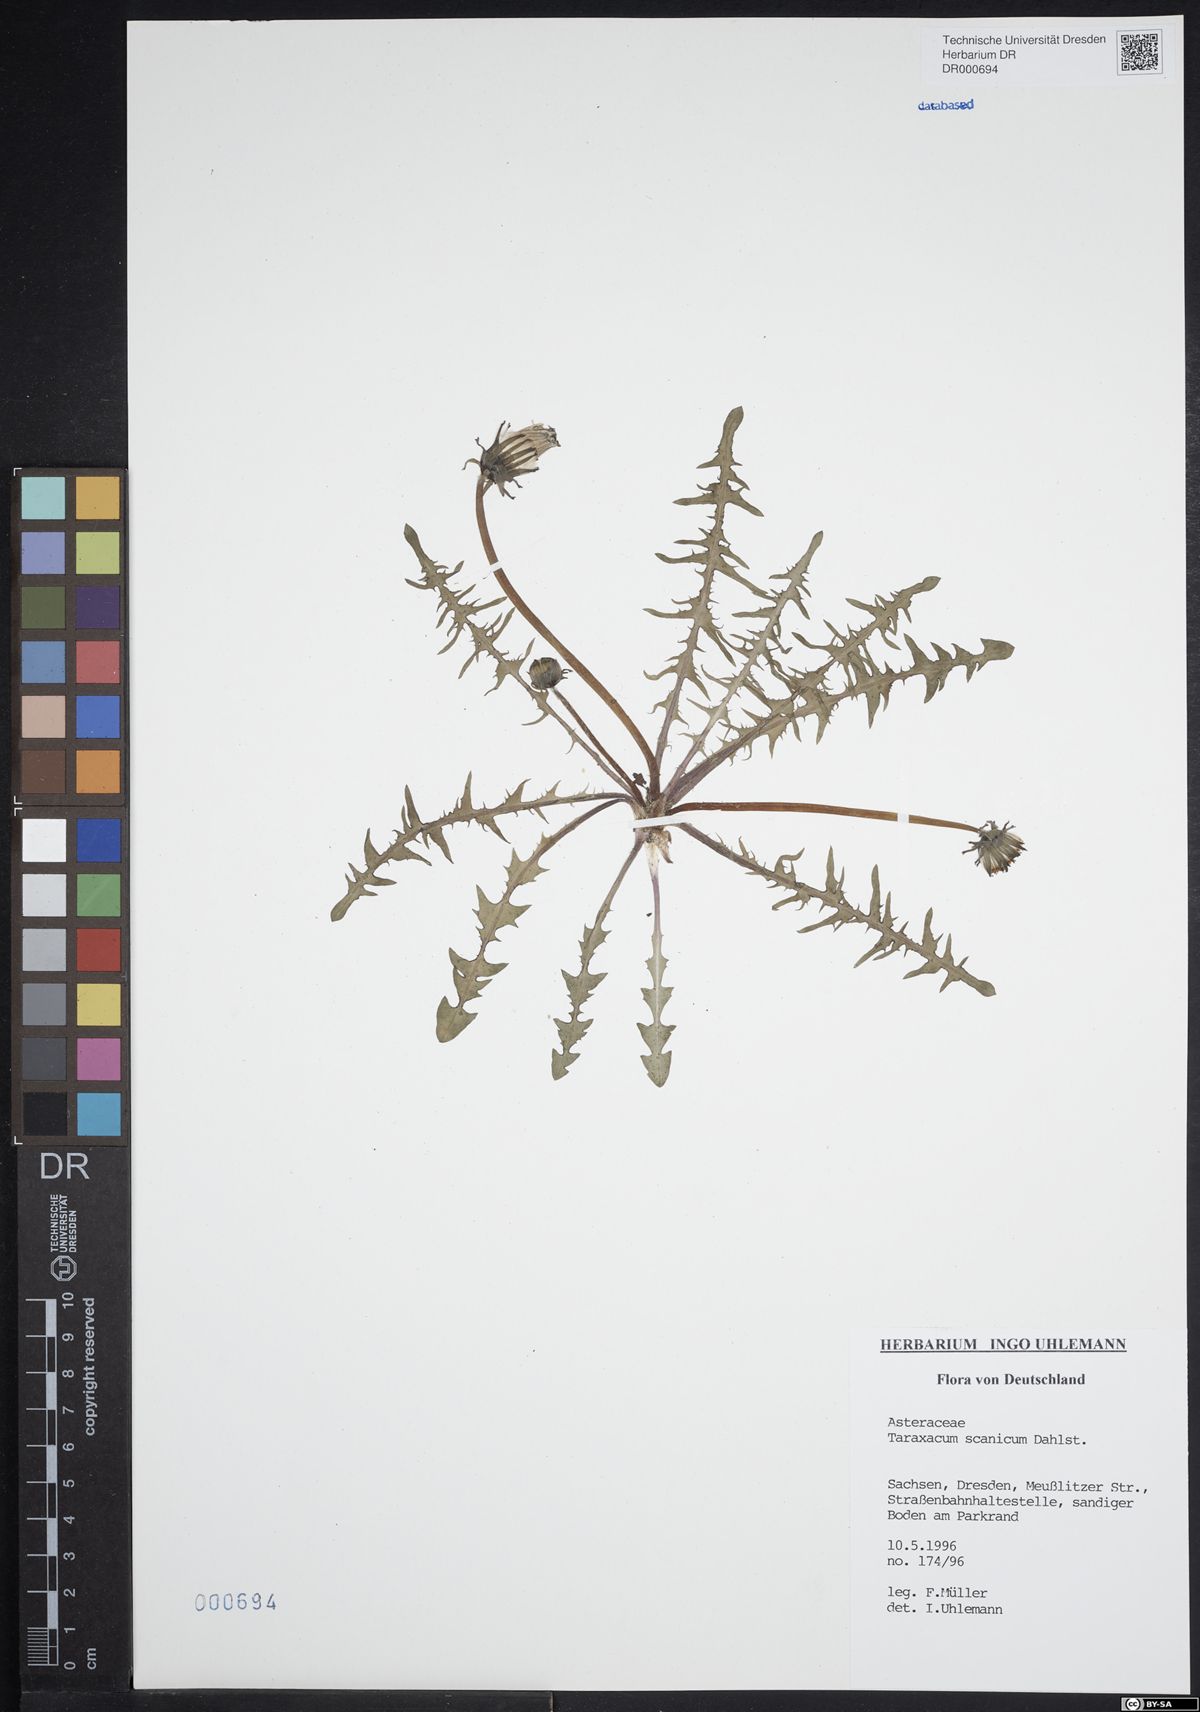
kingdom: Plantae
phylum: Tracheophyta
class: Magnoliopsida
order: Asterales
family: Asteraceae
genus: Taraxacum
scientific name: Taraxacum scanicum
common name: Skåne dandelion
